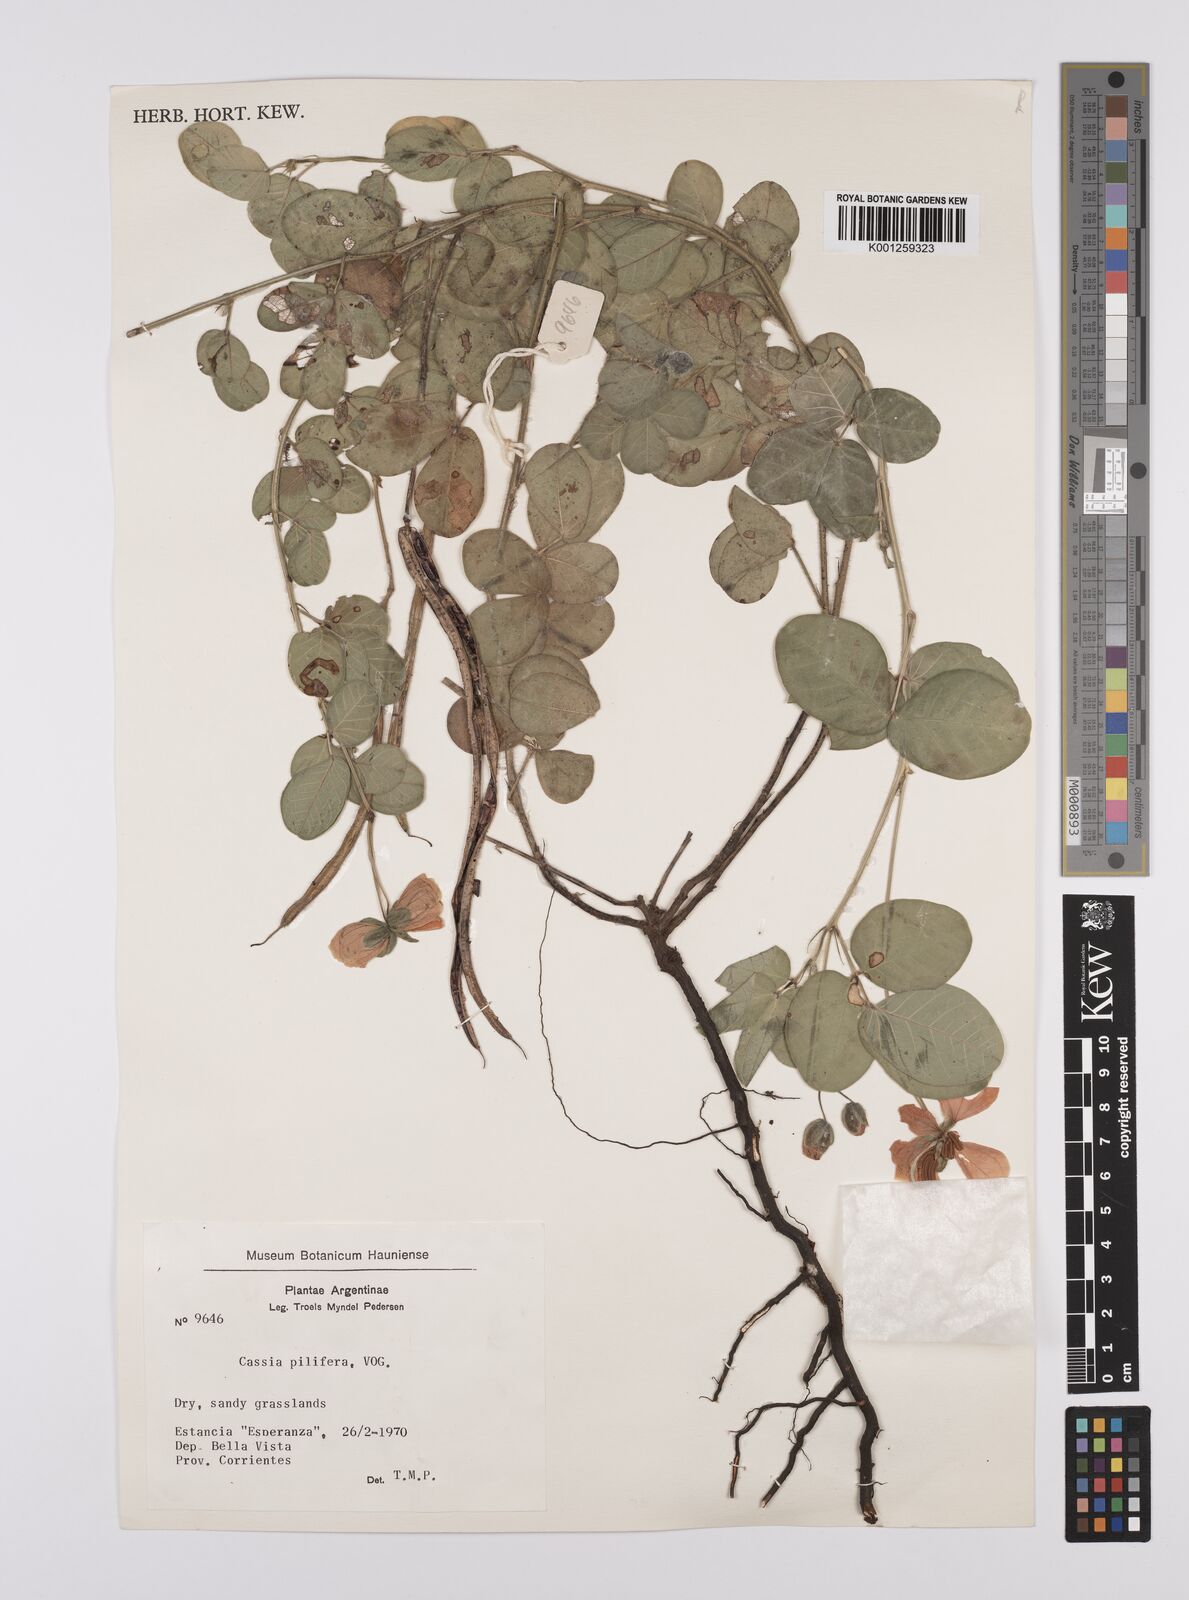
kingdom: Plantae
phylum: Tracheophyta
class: Magnoliopsida
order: Fabales
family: Fabaceae
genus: Senna
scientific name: Senna pilifera
